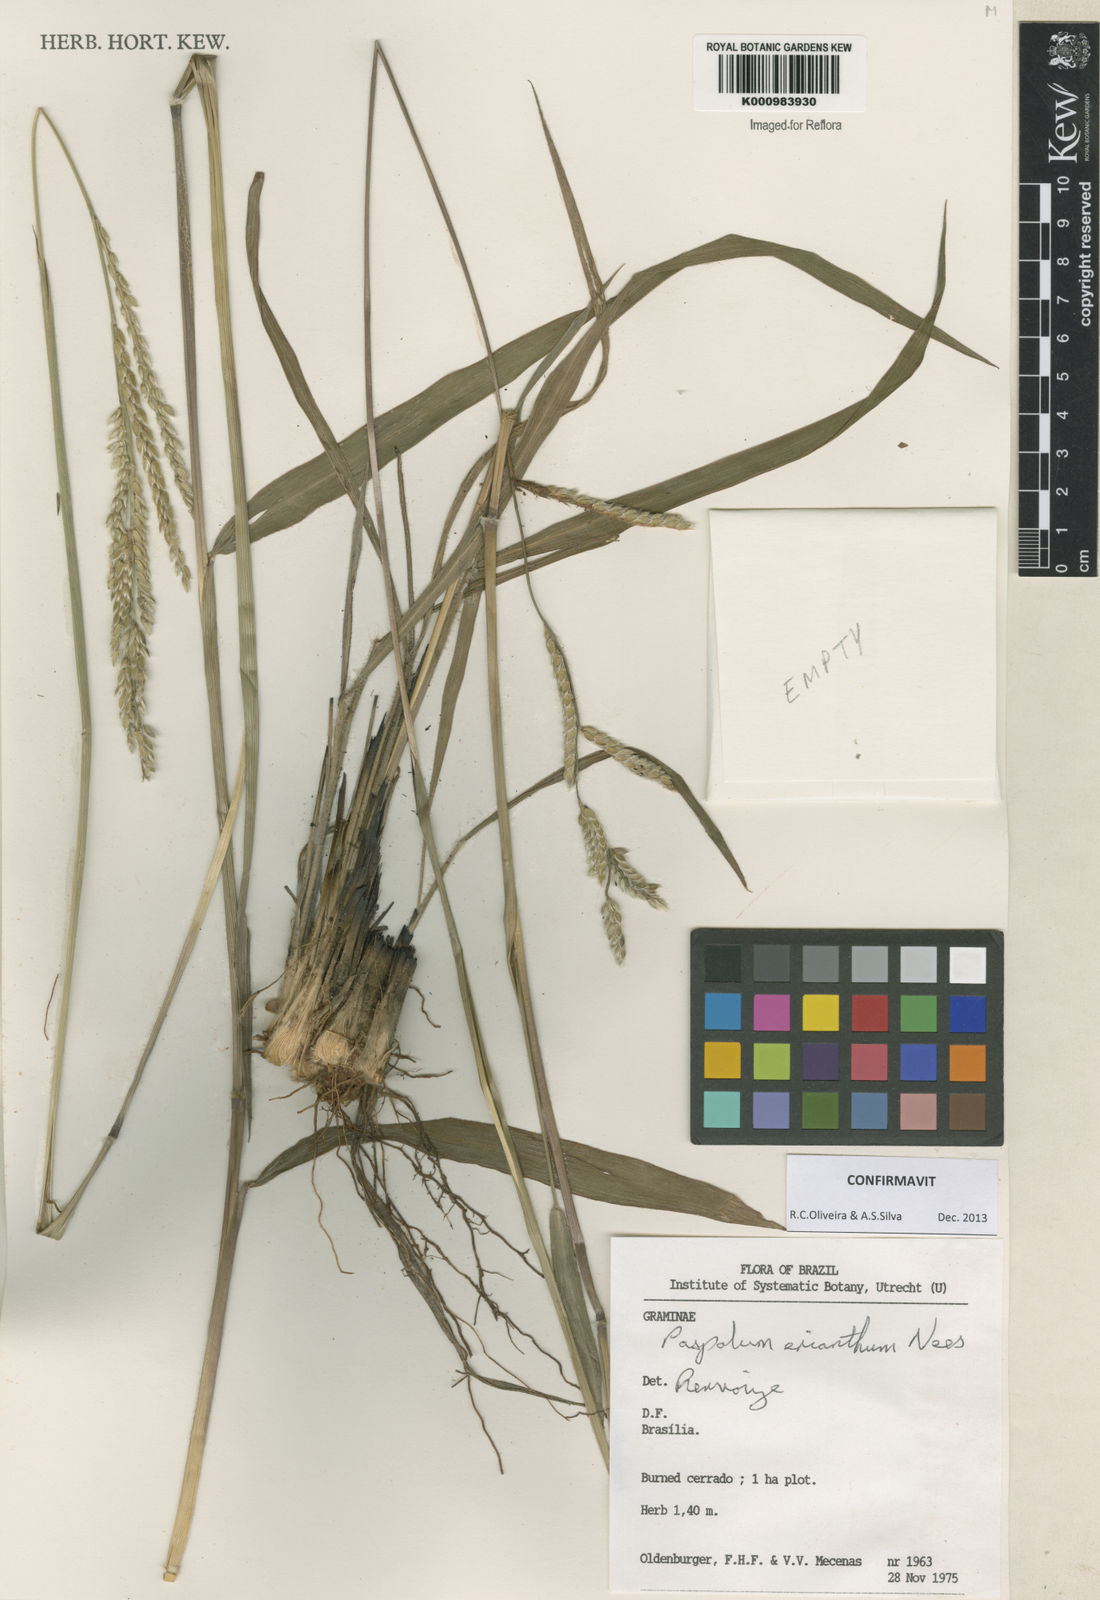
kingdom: Plantae
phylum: Tracheophyta
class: Liliopsida
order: Poales
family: Poaceae
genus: Paspalum
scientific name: Paspalum erianthum
